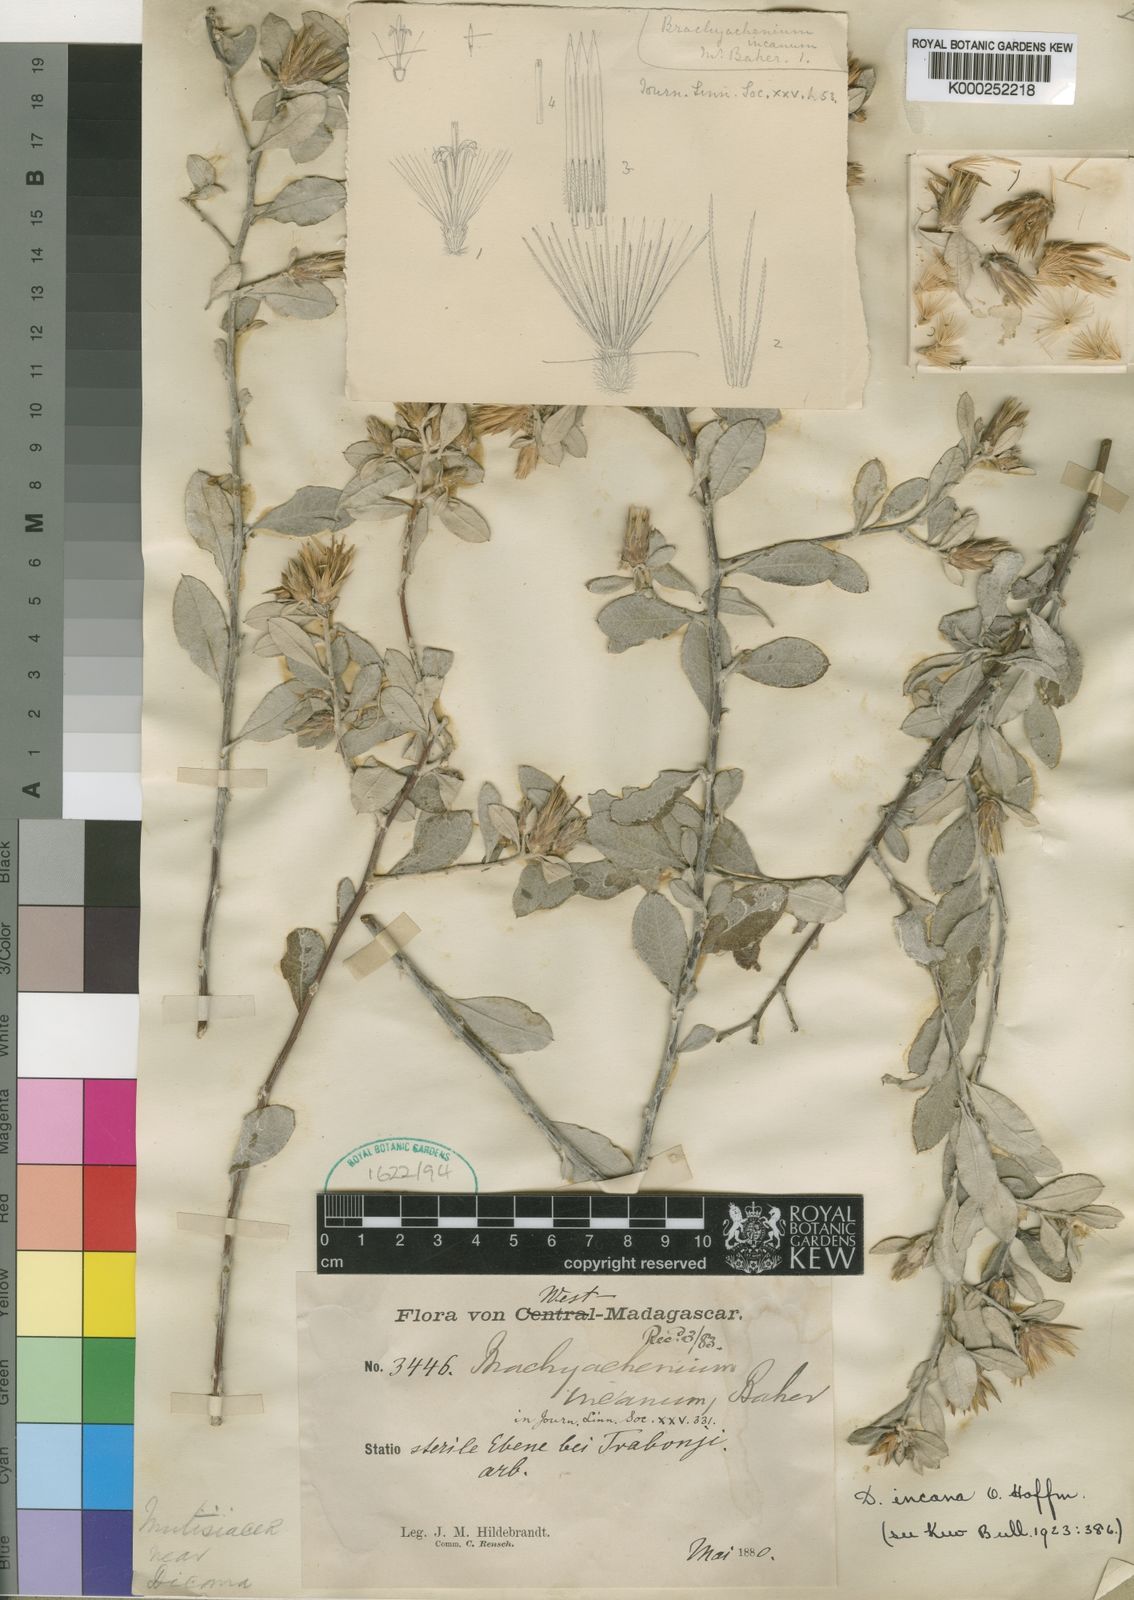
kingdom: Plantae
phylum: Tracheophyta
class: Magnoliopsida
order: Asterales
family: Asteraceae
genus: Dicoma
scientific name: Dicoma incana
